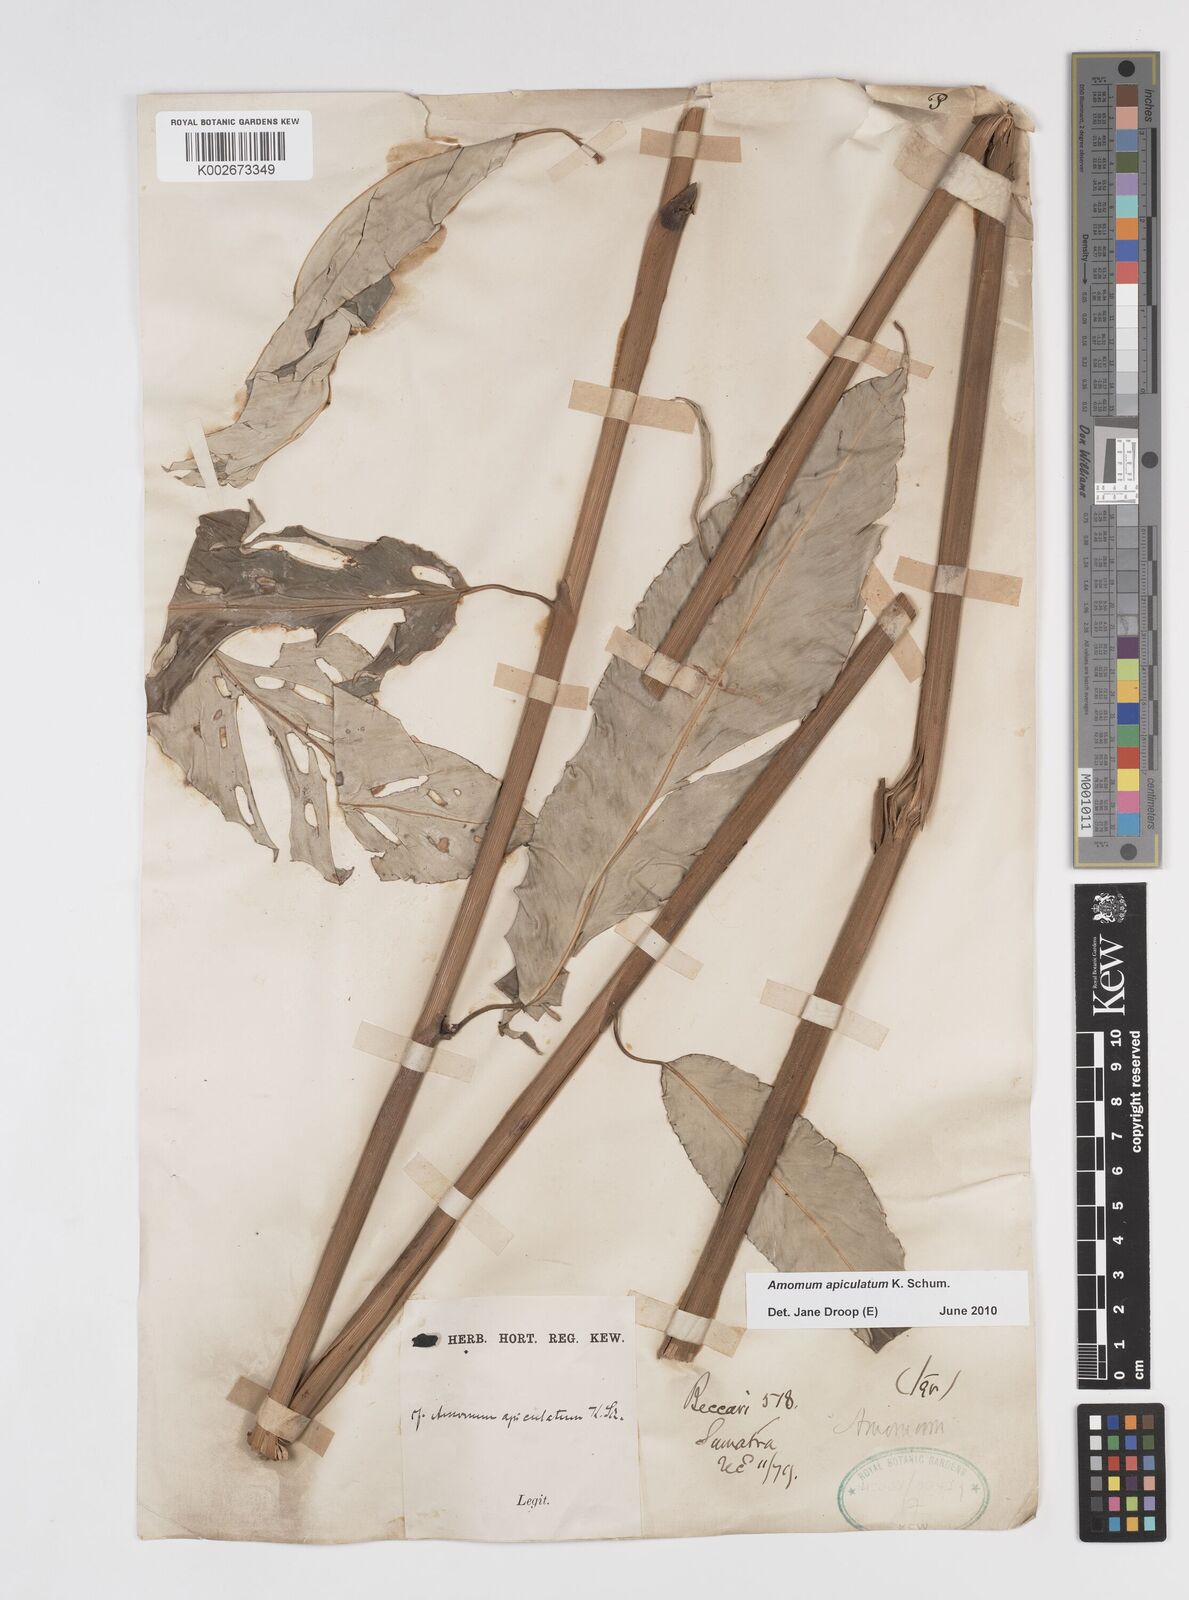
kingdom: Plantae
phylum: Tracheophyta
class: Liliopsida
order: Zingiberales
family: Zingiberaceae
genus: Amomum
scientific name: Amomum apiculatum
